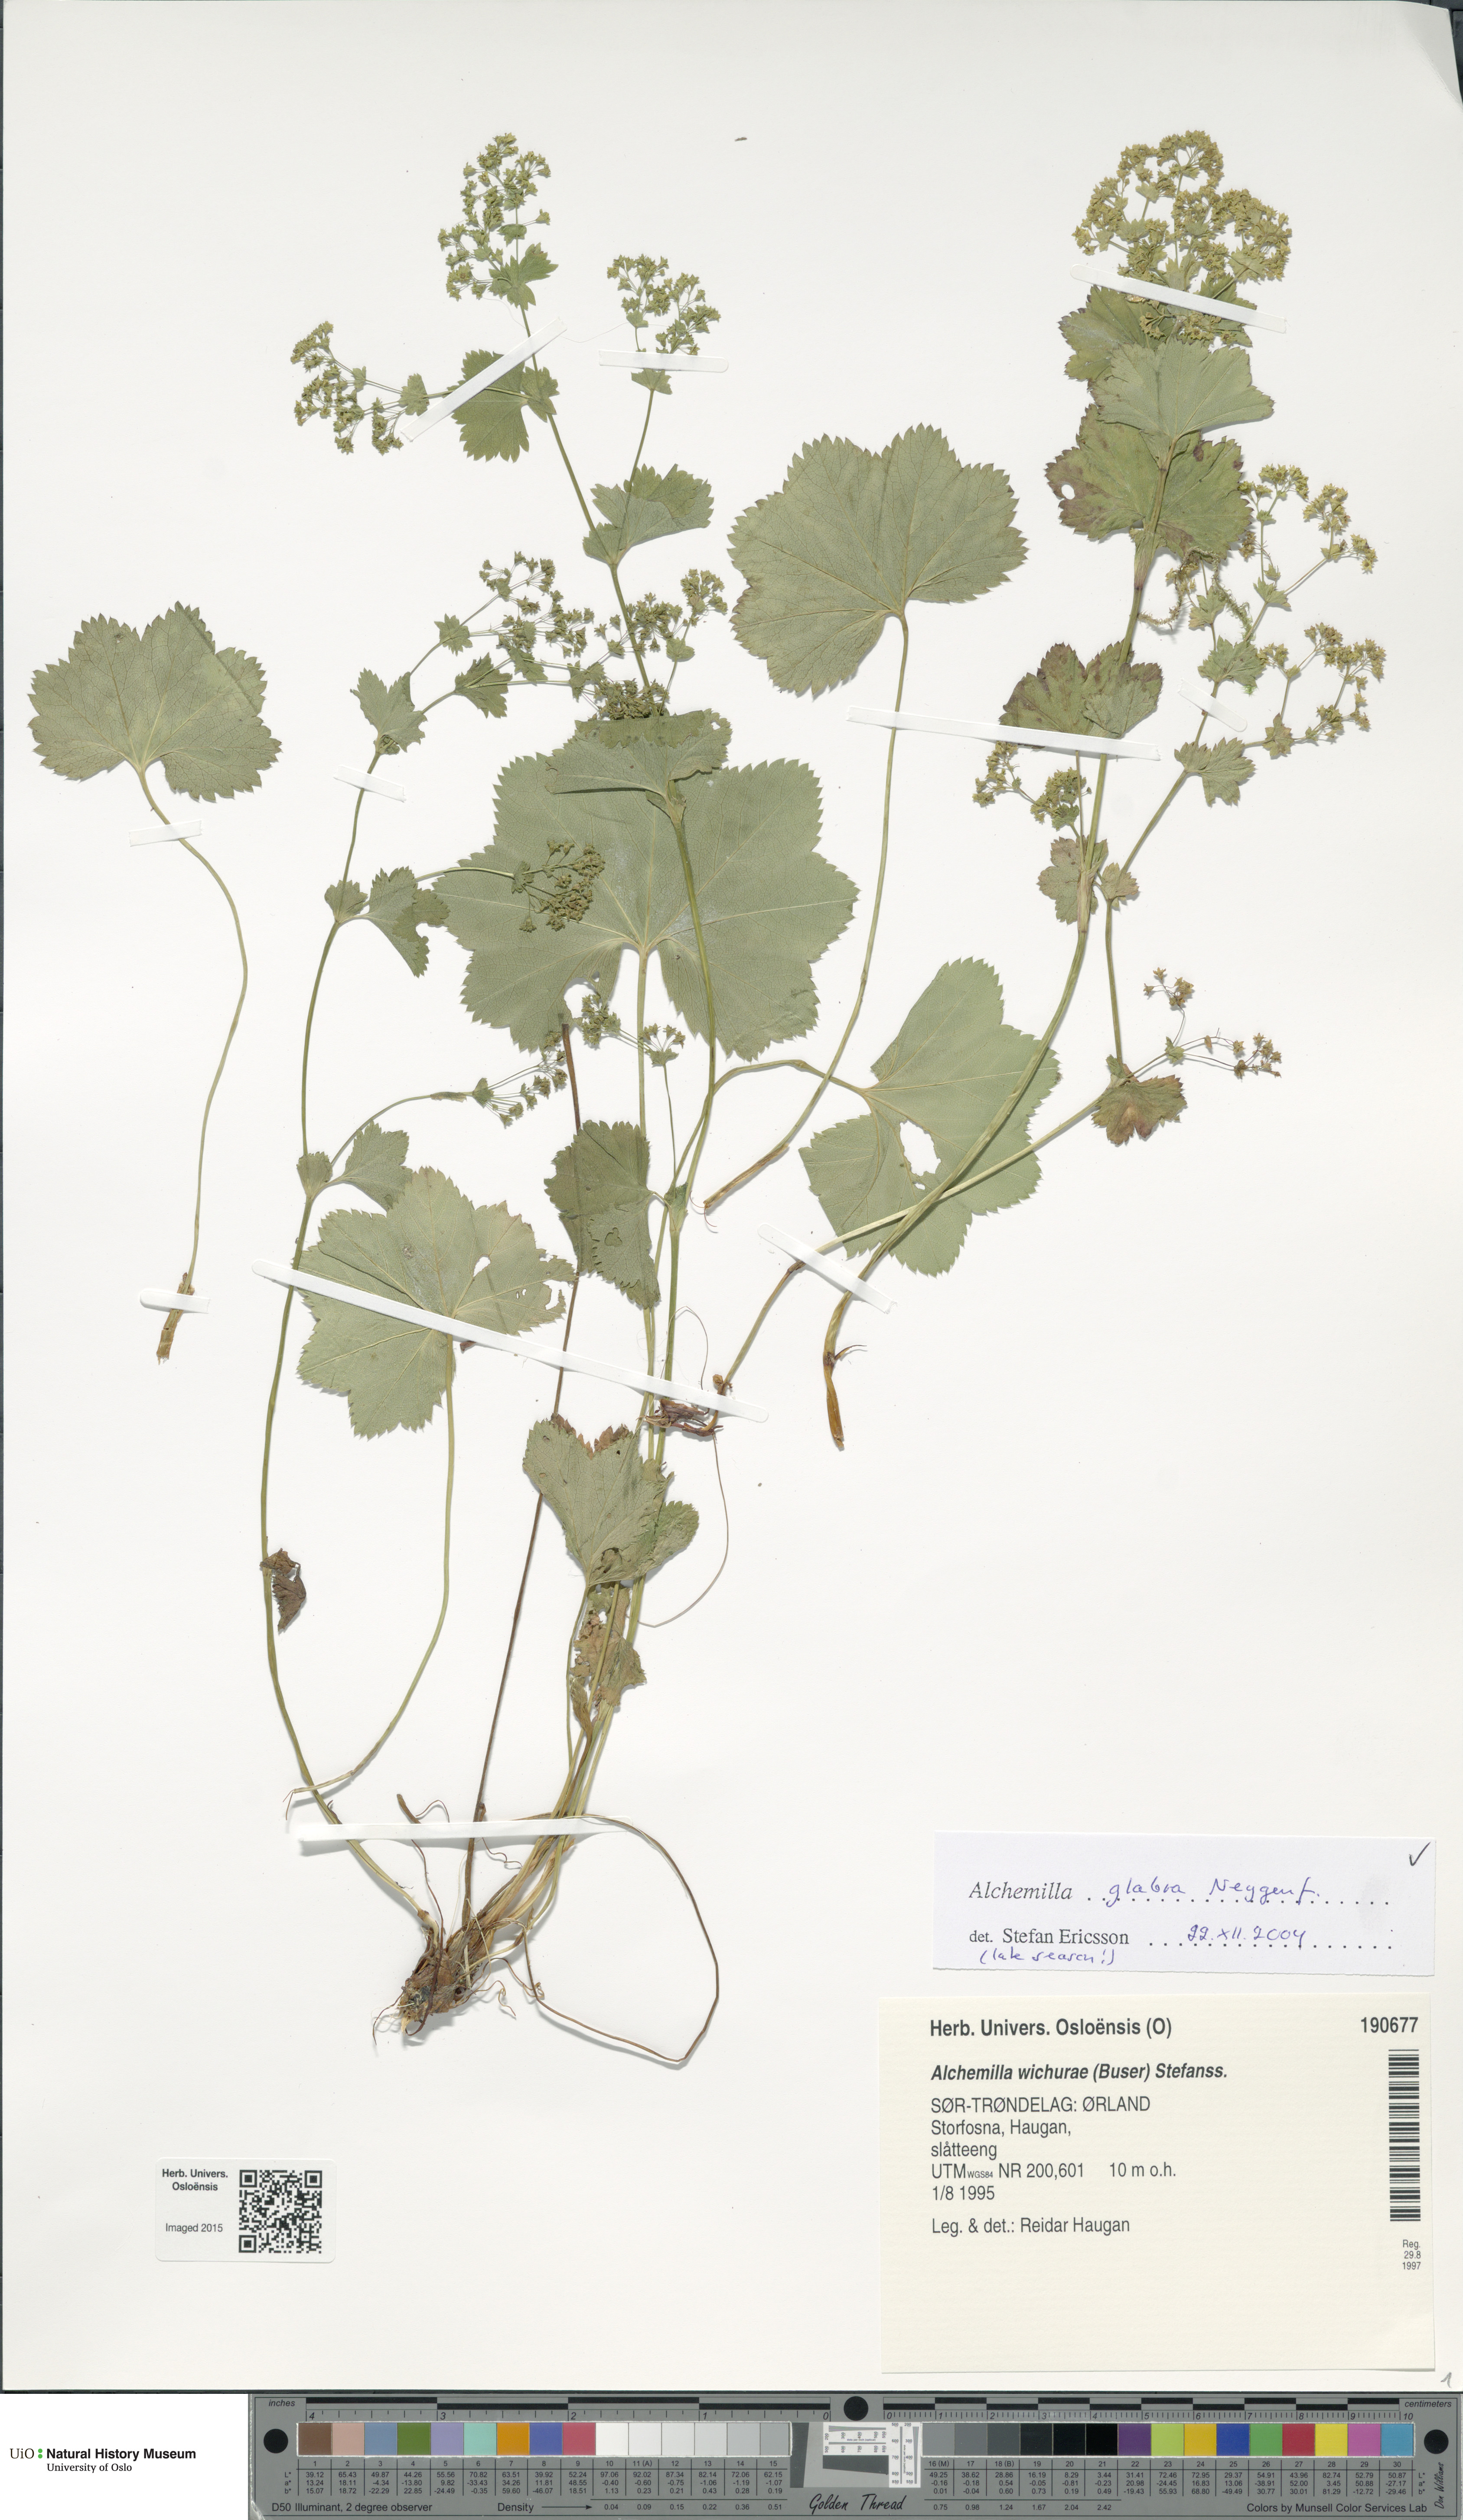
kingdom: Plantae
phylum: Tracheophyta
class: Magnoliopsida
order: Rosales
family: Rosaceae
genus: Alchemilla
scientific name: Alchemilla glabra
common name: Smooth lady's-mantle
